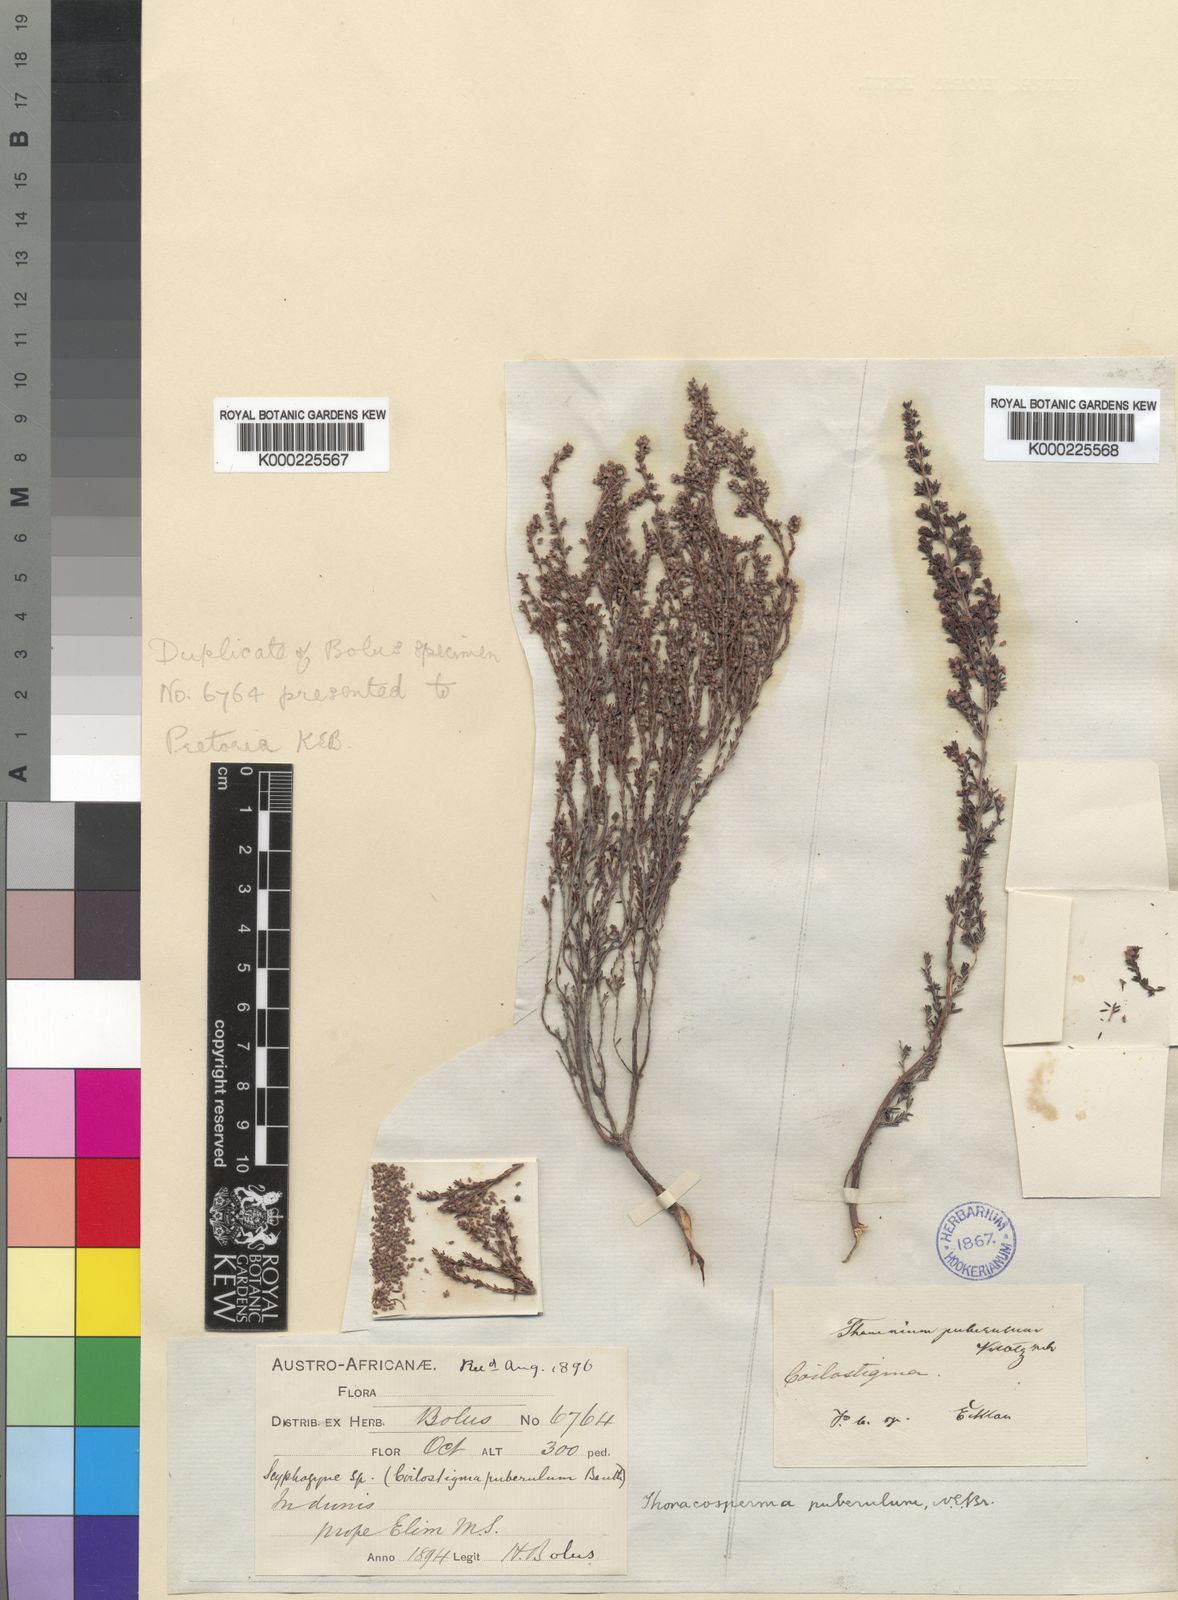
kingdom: Plantae
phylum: Tracheophyta
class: Magnoliopsida
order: Ericales
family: Ericaceae
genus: Erica
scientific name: Erica puberuliflora
